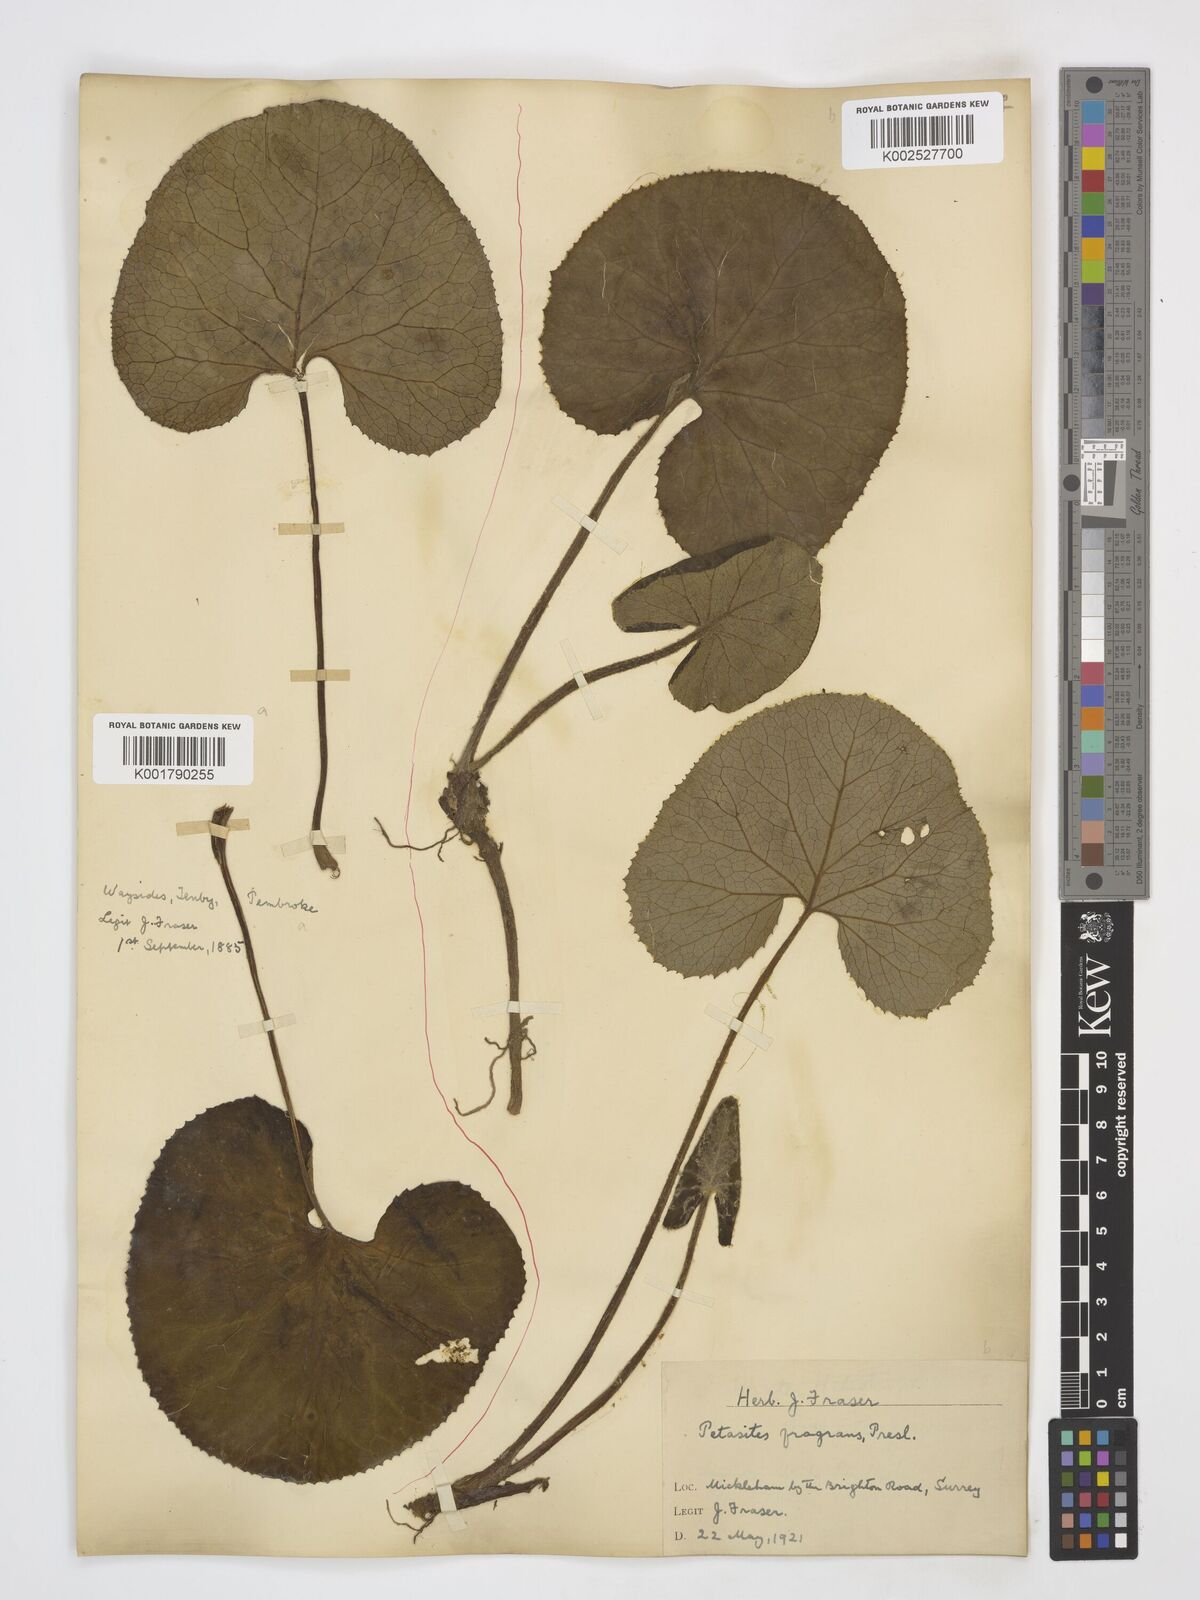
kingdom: Plantae
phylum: Tracheophyta
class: Magnoliopsida
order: Asterales
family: Asteraceae
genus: Petasites
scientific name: Petasites pyrenaicus
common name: Winter heliotrope
